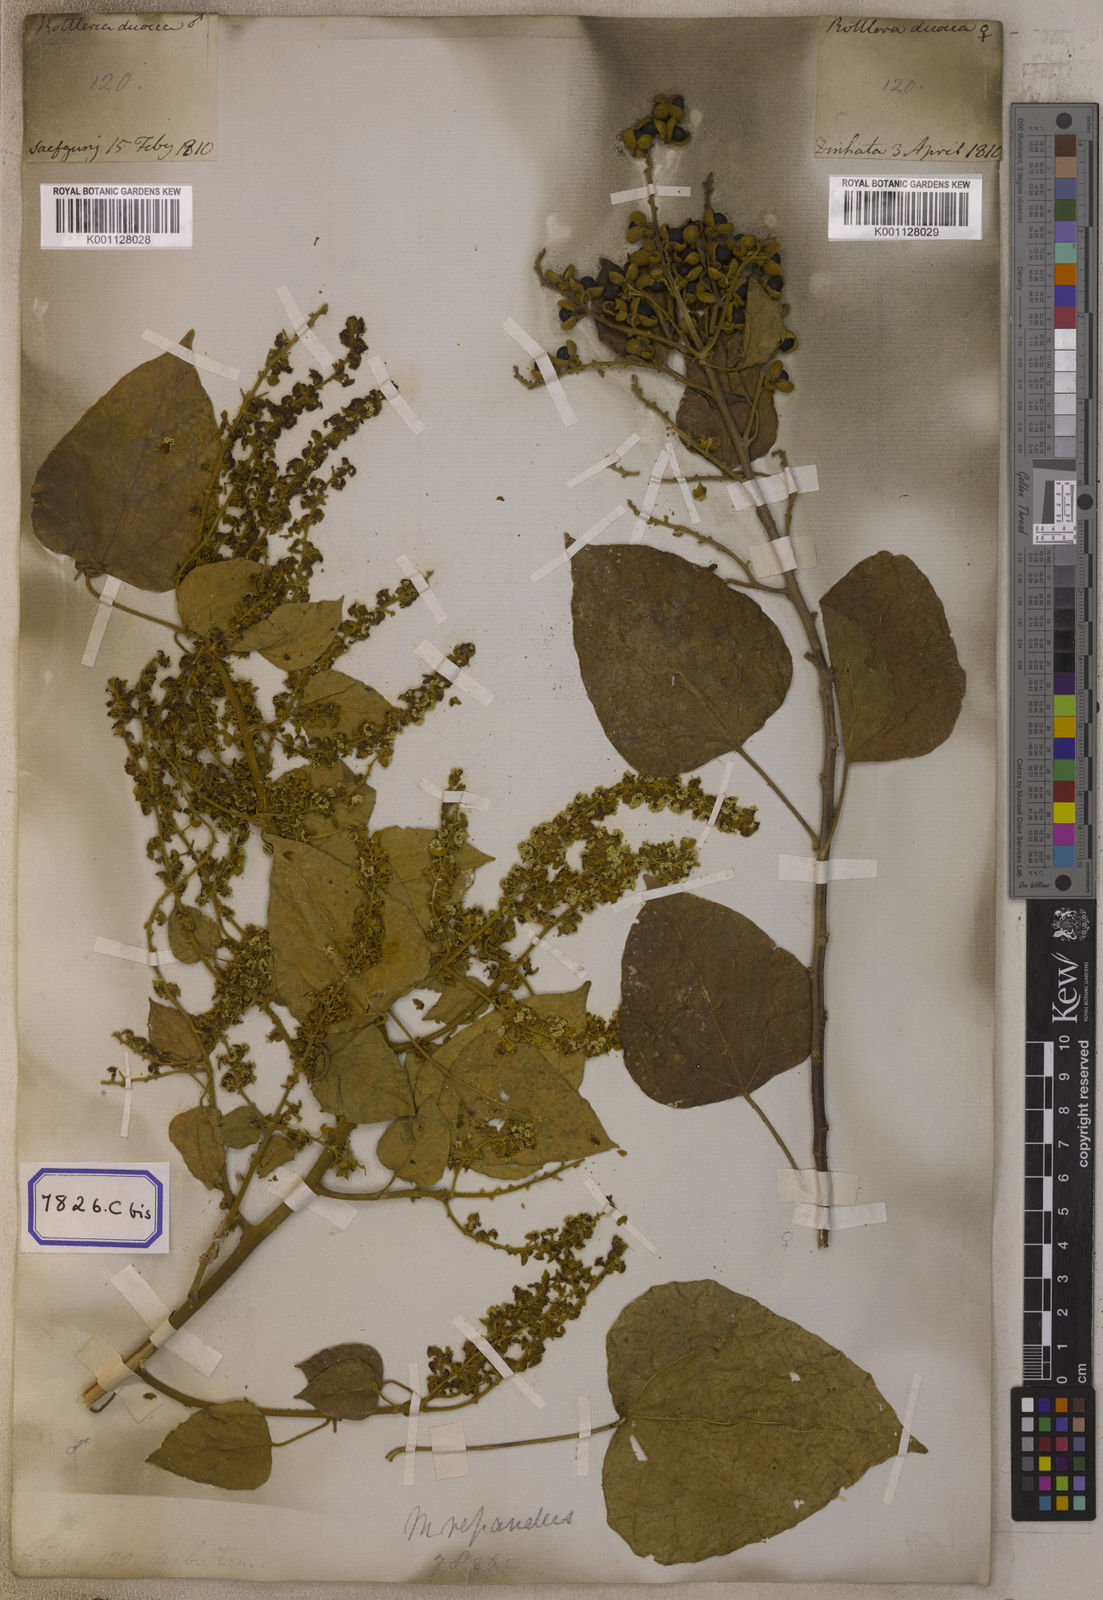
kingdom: Plantae
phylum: Tracheophyta
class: Magnoliopsida
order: Malpighiales
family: Euphorbiaceae
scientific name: Euphorbiaceae
